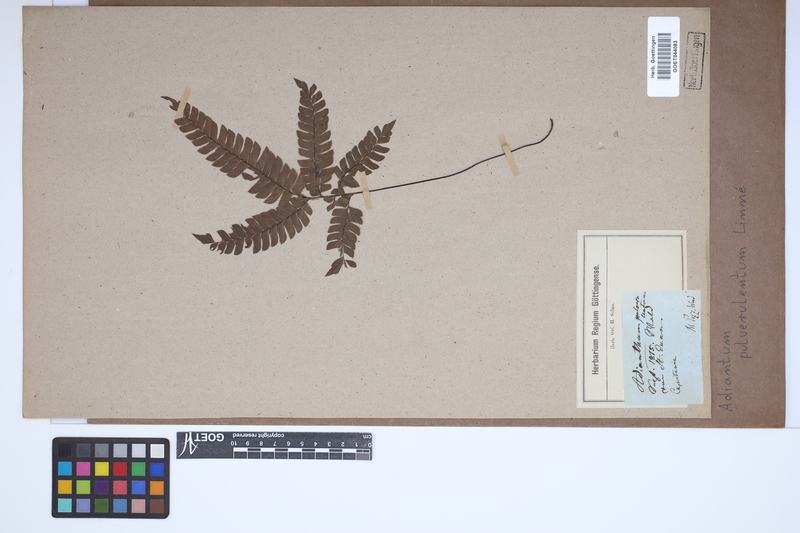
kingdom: Plantae
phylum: Tracheophyta
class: Polypodiopsida
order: Polypodiales
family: Pteridaceae
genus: Adiantum
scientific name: Adiantum pulverulentum
